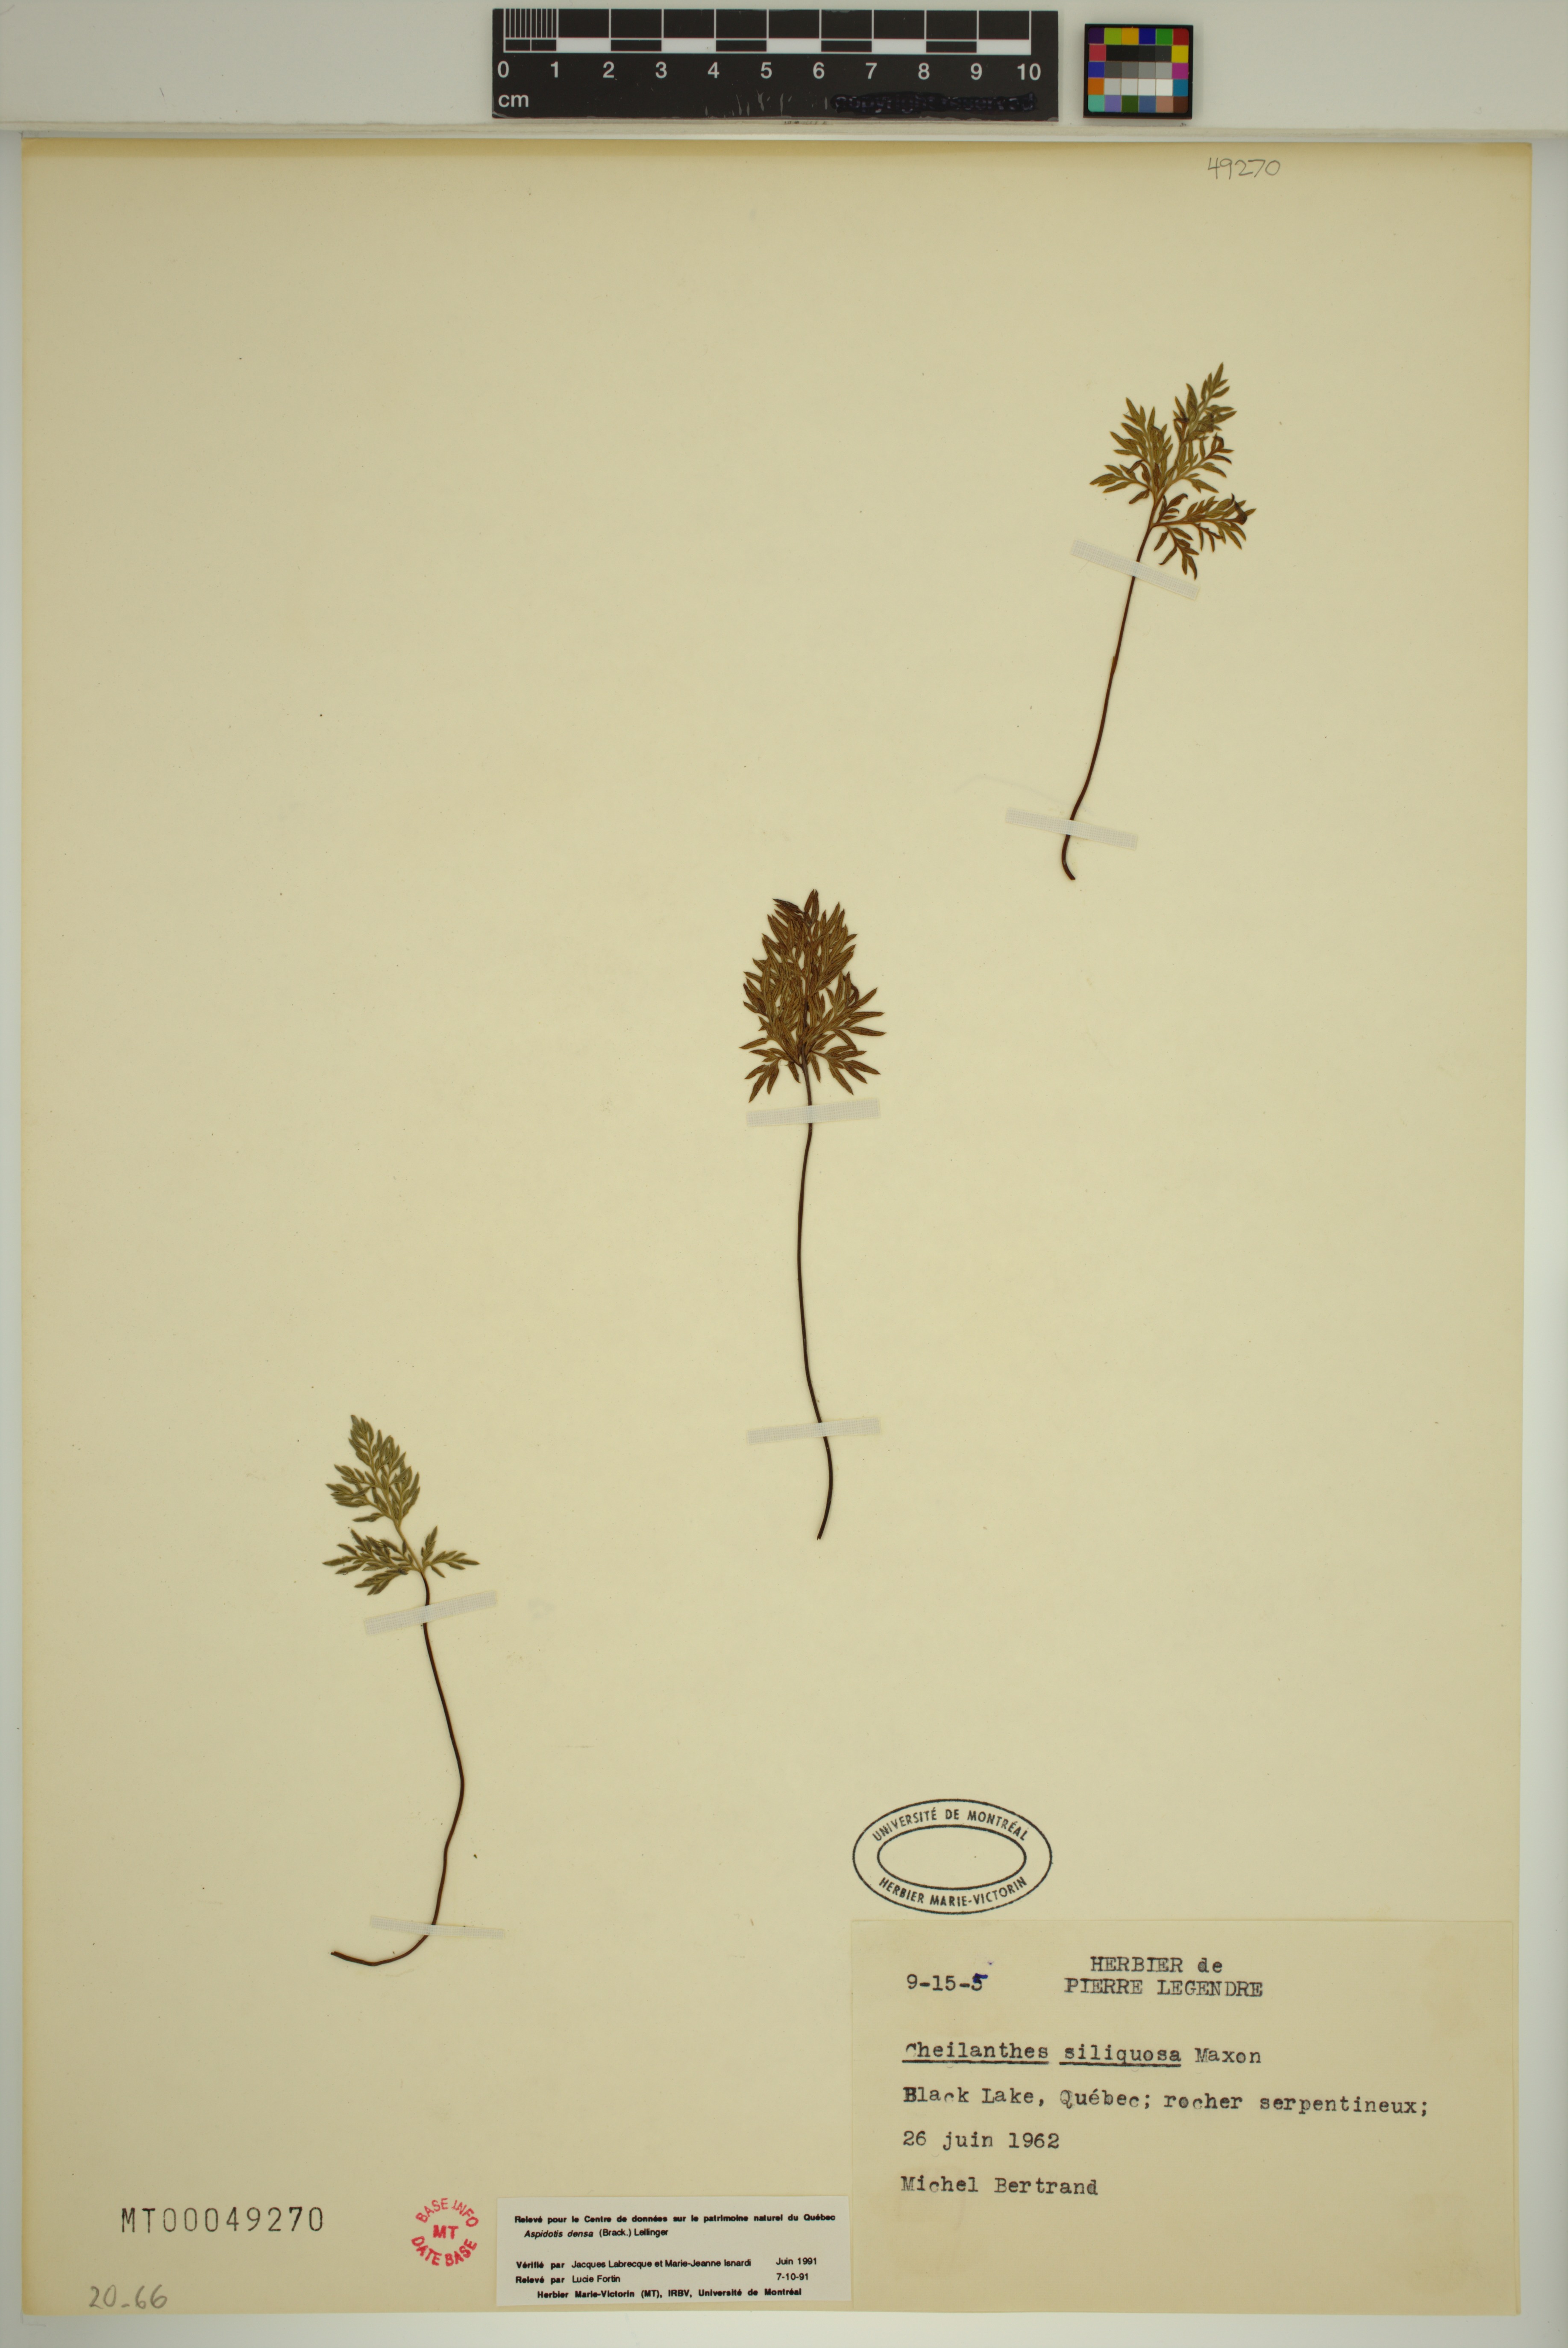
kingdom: Plantae
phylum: Tracheophyta
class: Polypodiopsida
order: Polypodiales
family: Pteridaceae
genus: Aspidotis
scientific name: Aspidotis densa
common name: Indian's dream
